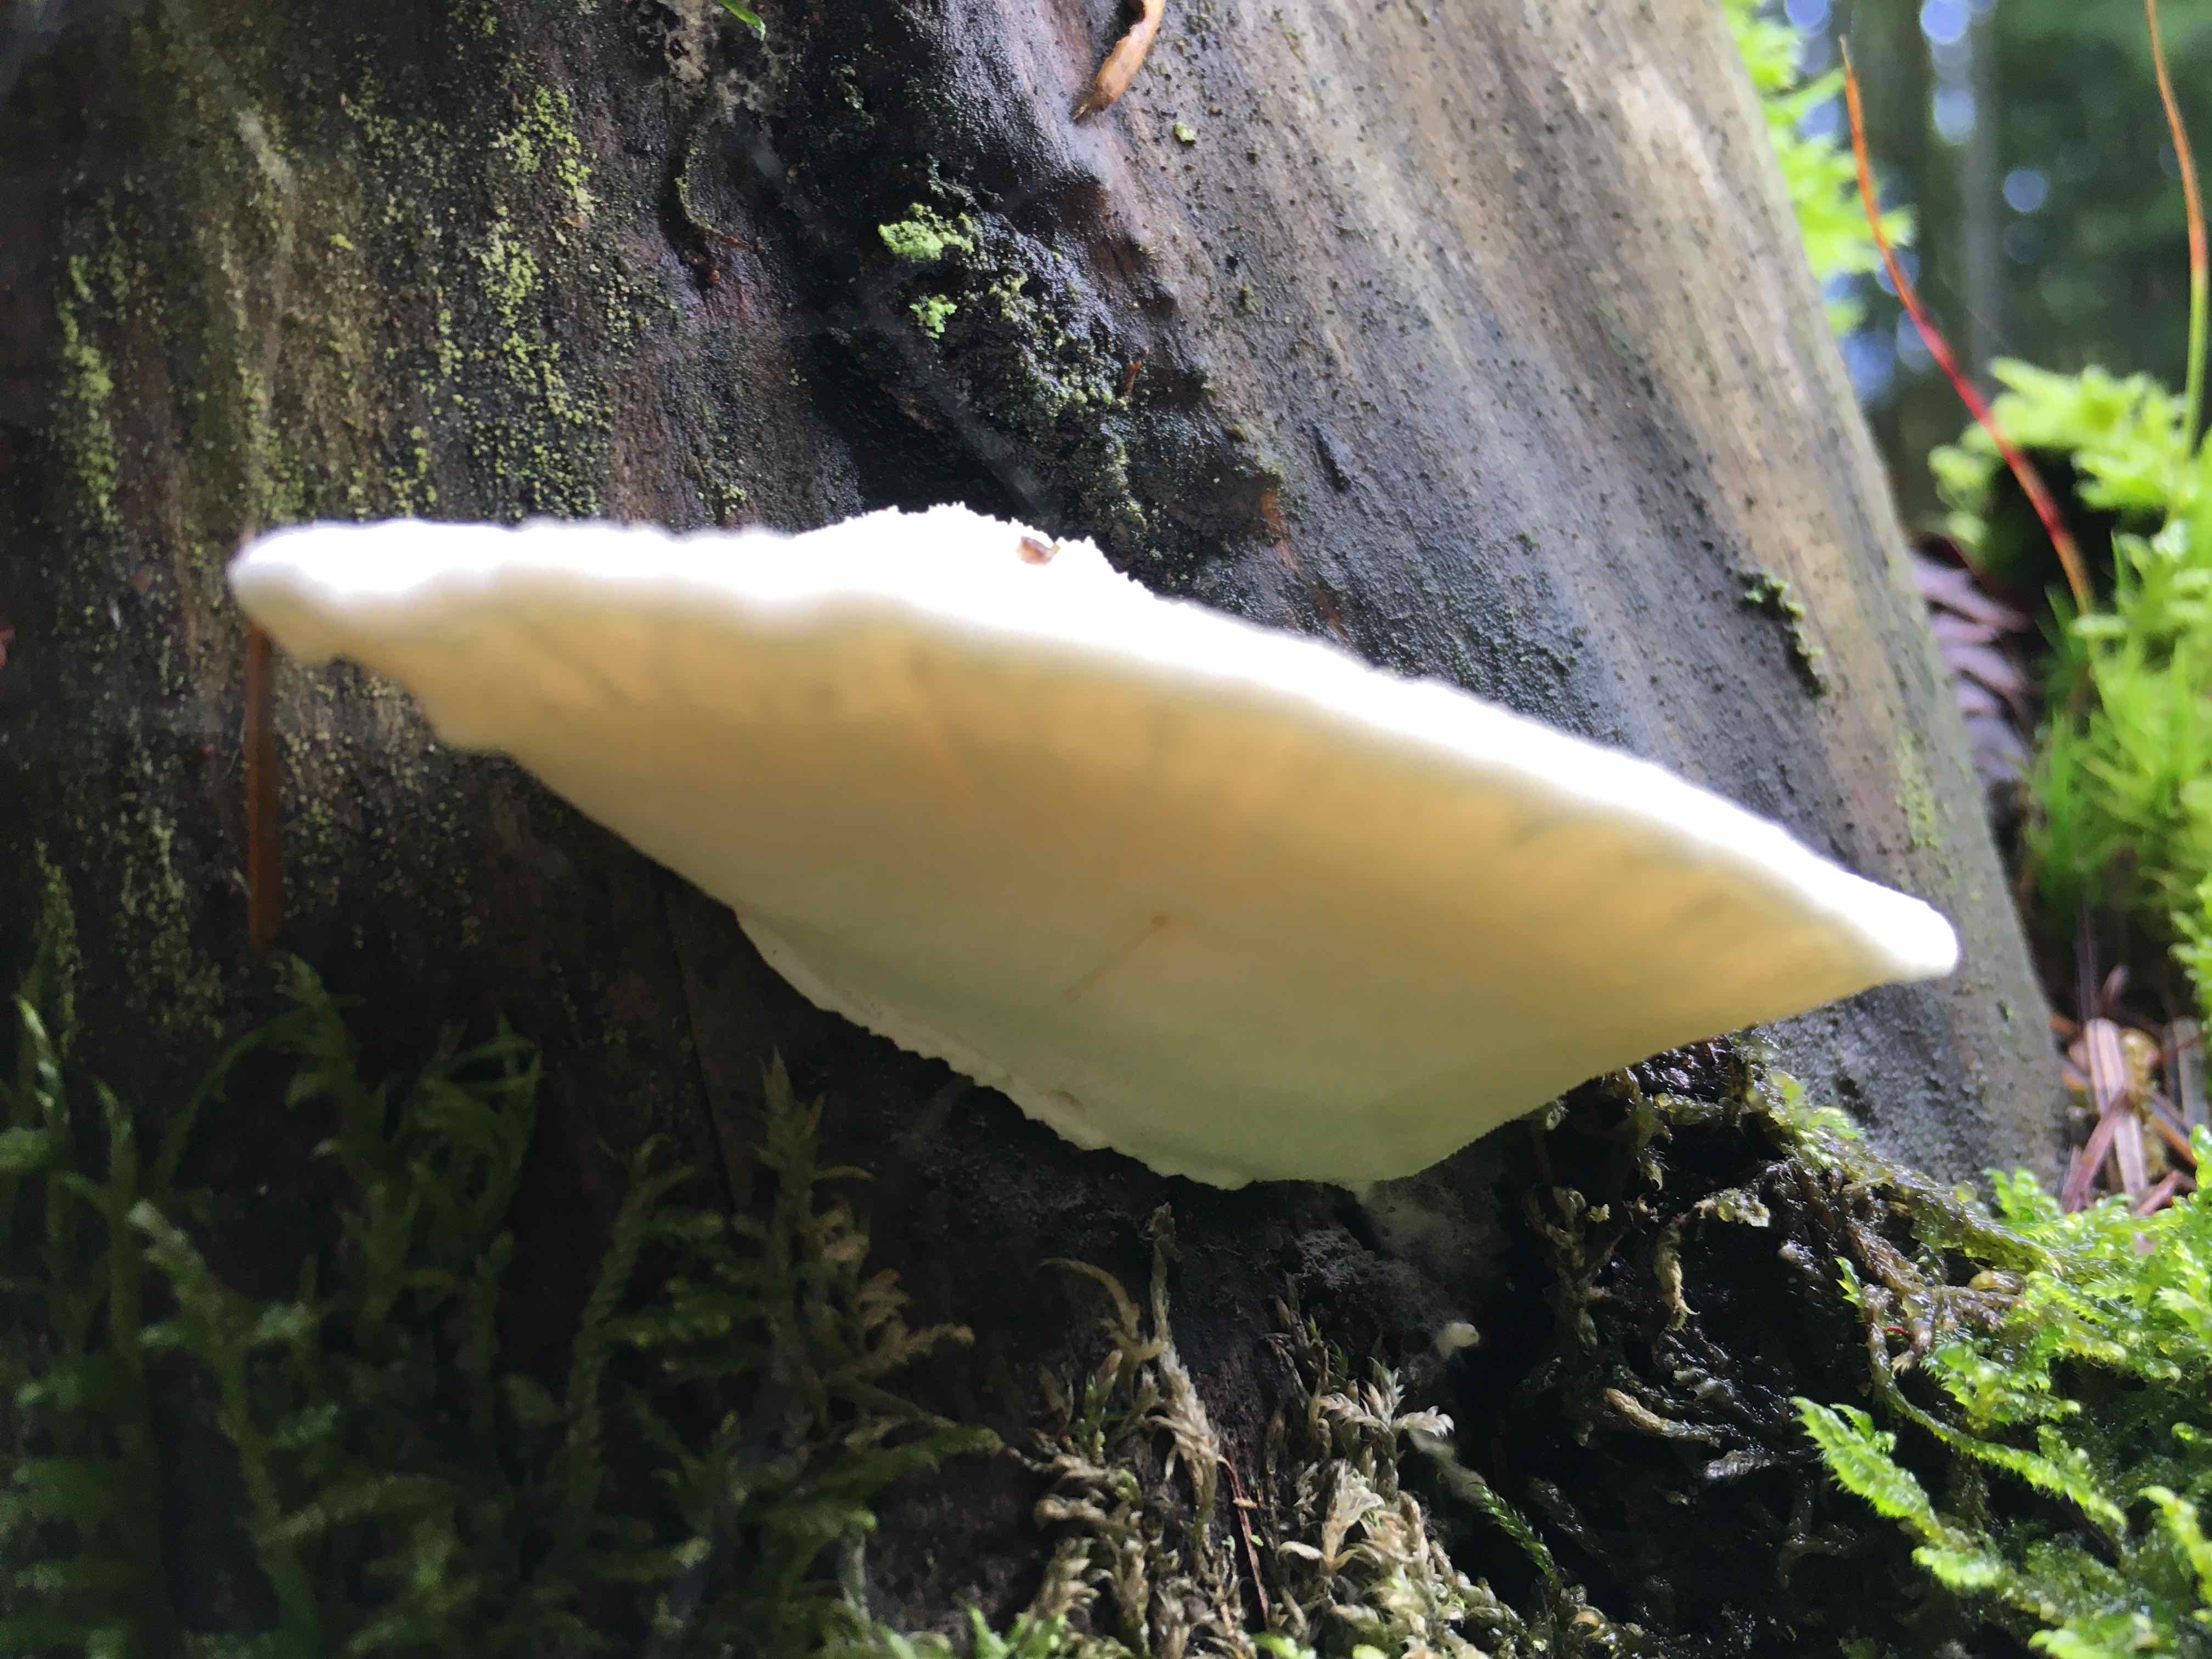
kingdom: Fungi
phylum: Basidiomycota
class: Agaricomycetes
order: Polyporales
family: Fomitopsidaceae
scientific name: Fomitopsidaceae
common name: hovporesvampfamilien
